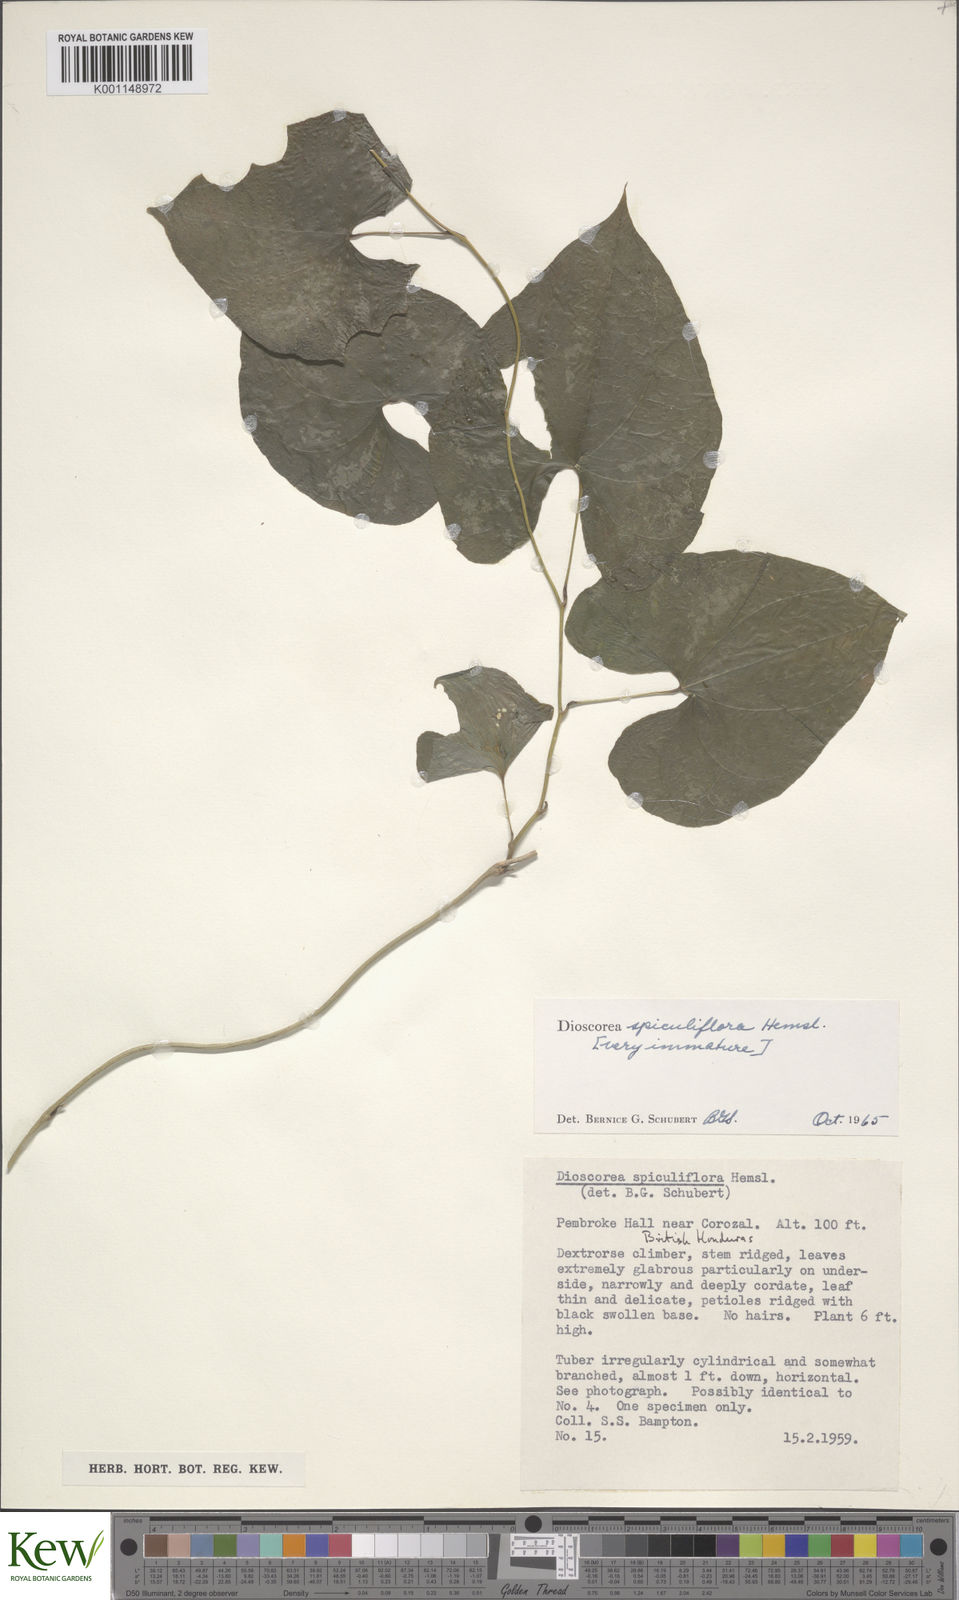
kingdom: Plantae
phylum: Tracheophyta
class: Liliopsida
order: Dioscoreales
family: Dioscoreaceae
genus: Dioscorea
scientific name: Dioscorea spiculiflora
